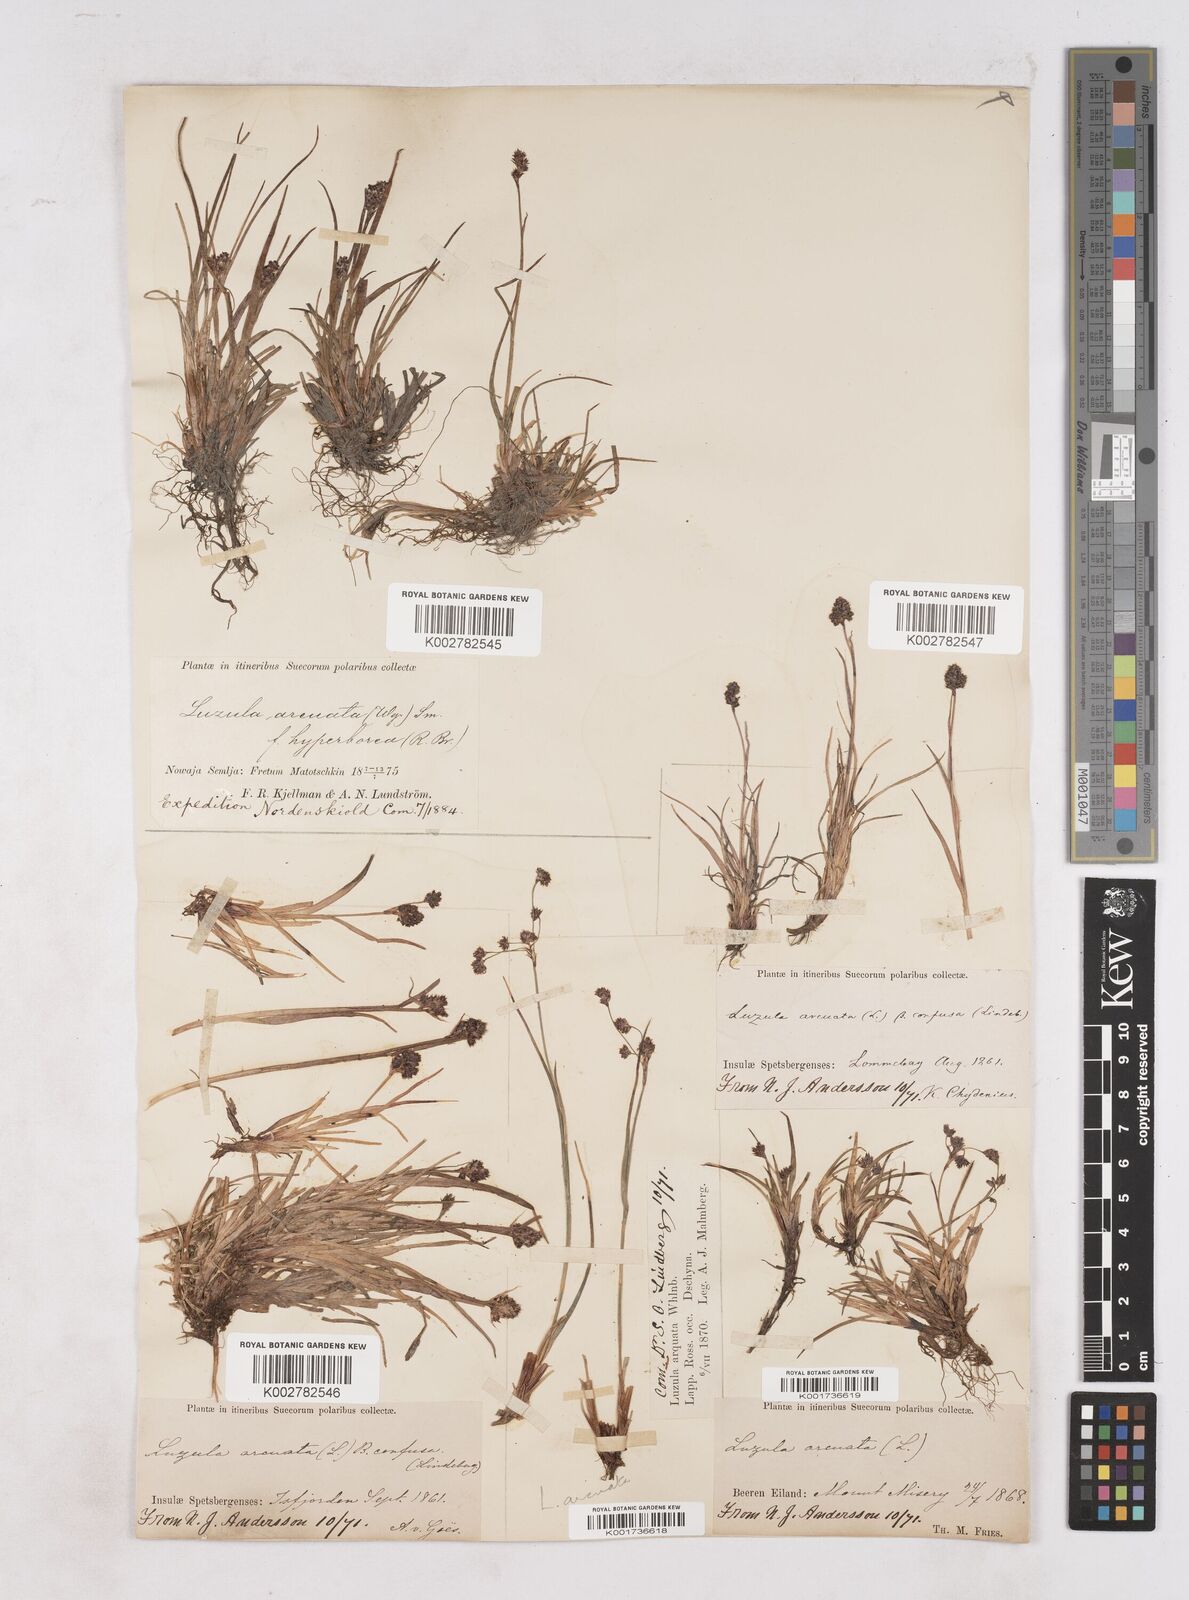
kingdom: Plantae
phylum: Tracheophyta
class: Liliopsida
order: Poales
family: Juncaceae
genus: Luzula
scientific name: Luzula confusa
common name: Northern wood rush
